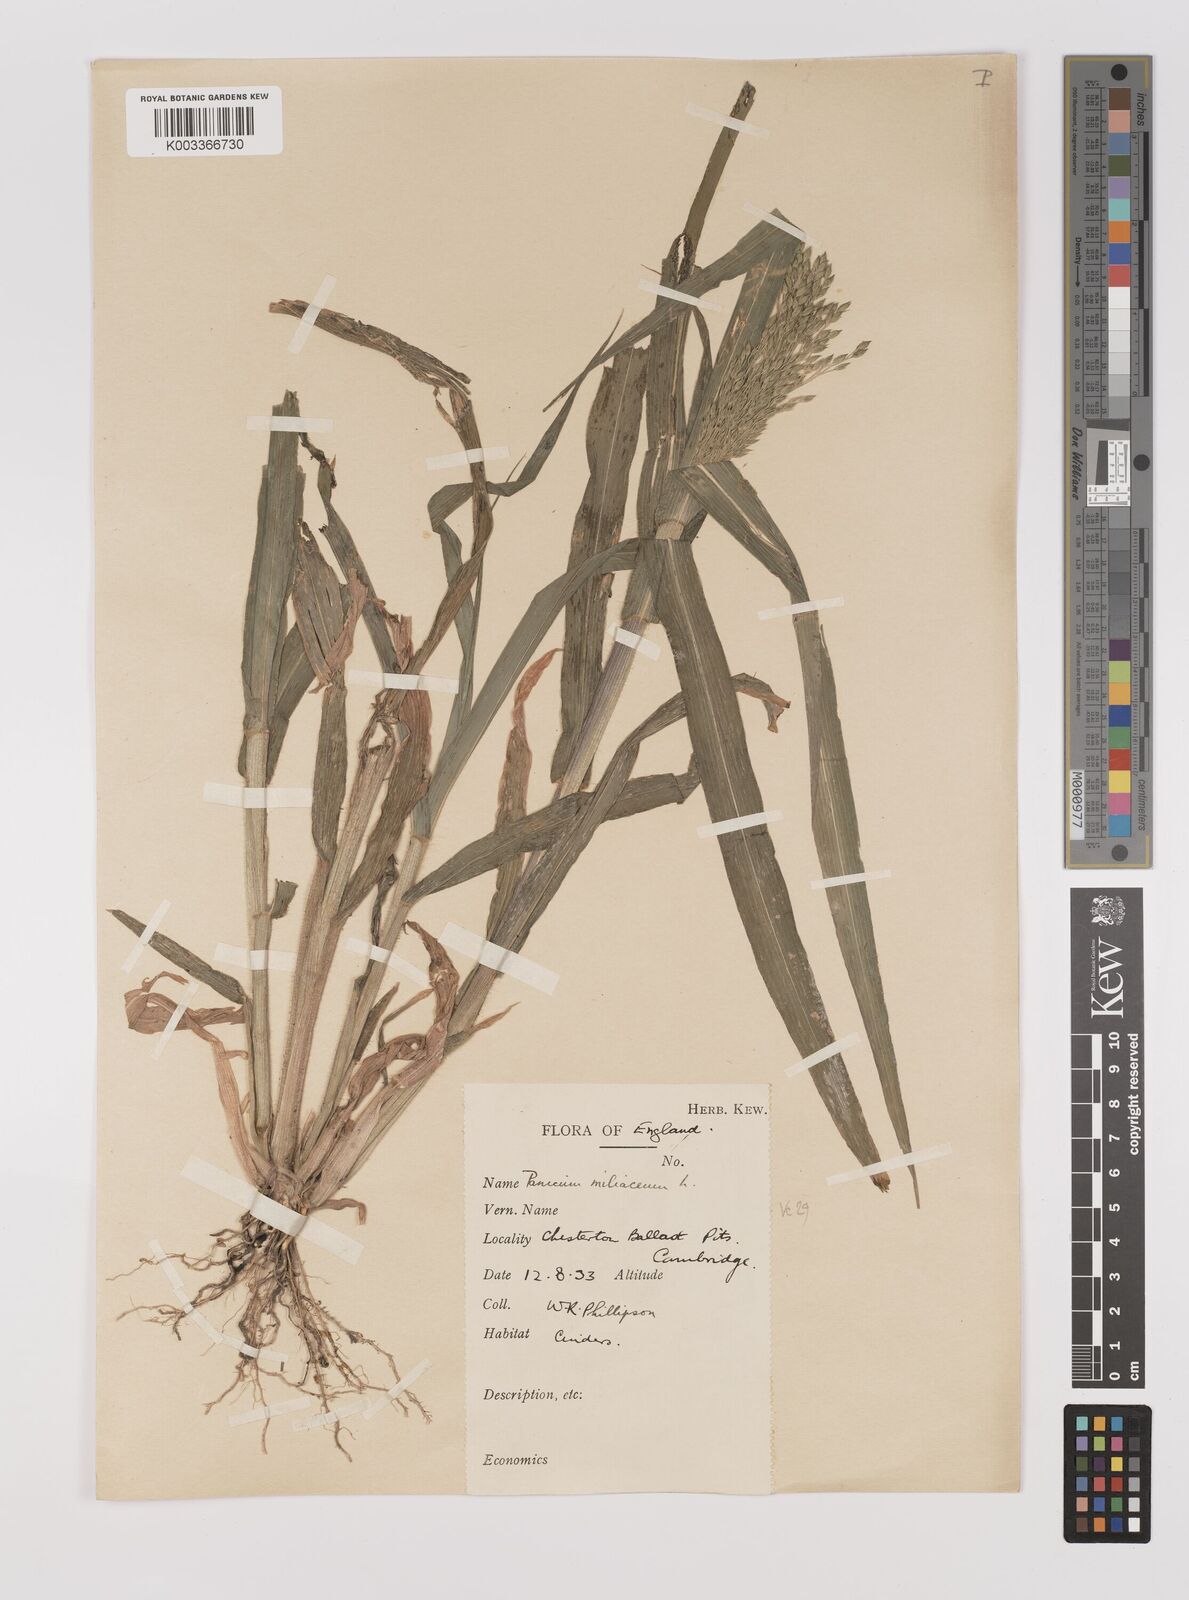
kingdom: Plantae
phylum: Tracheophyta
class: Liliopsida
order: Poales
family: Poaceae
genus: Panicum
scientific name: Panicum miliaceum
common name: Common millet
